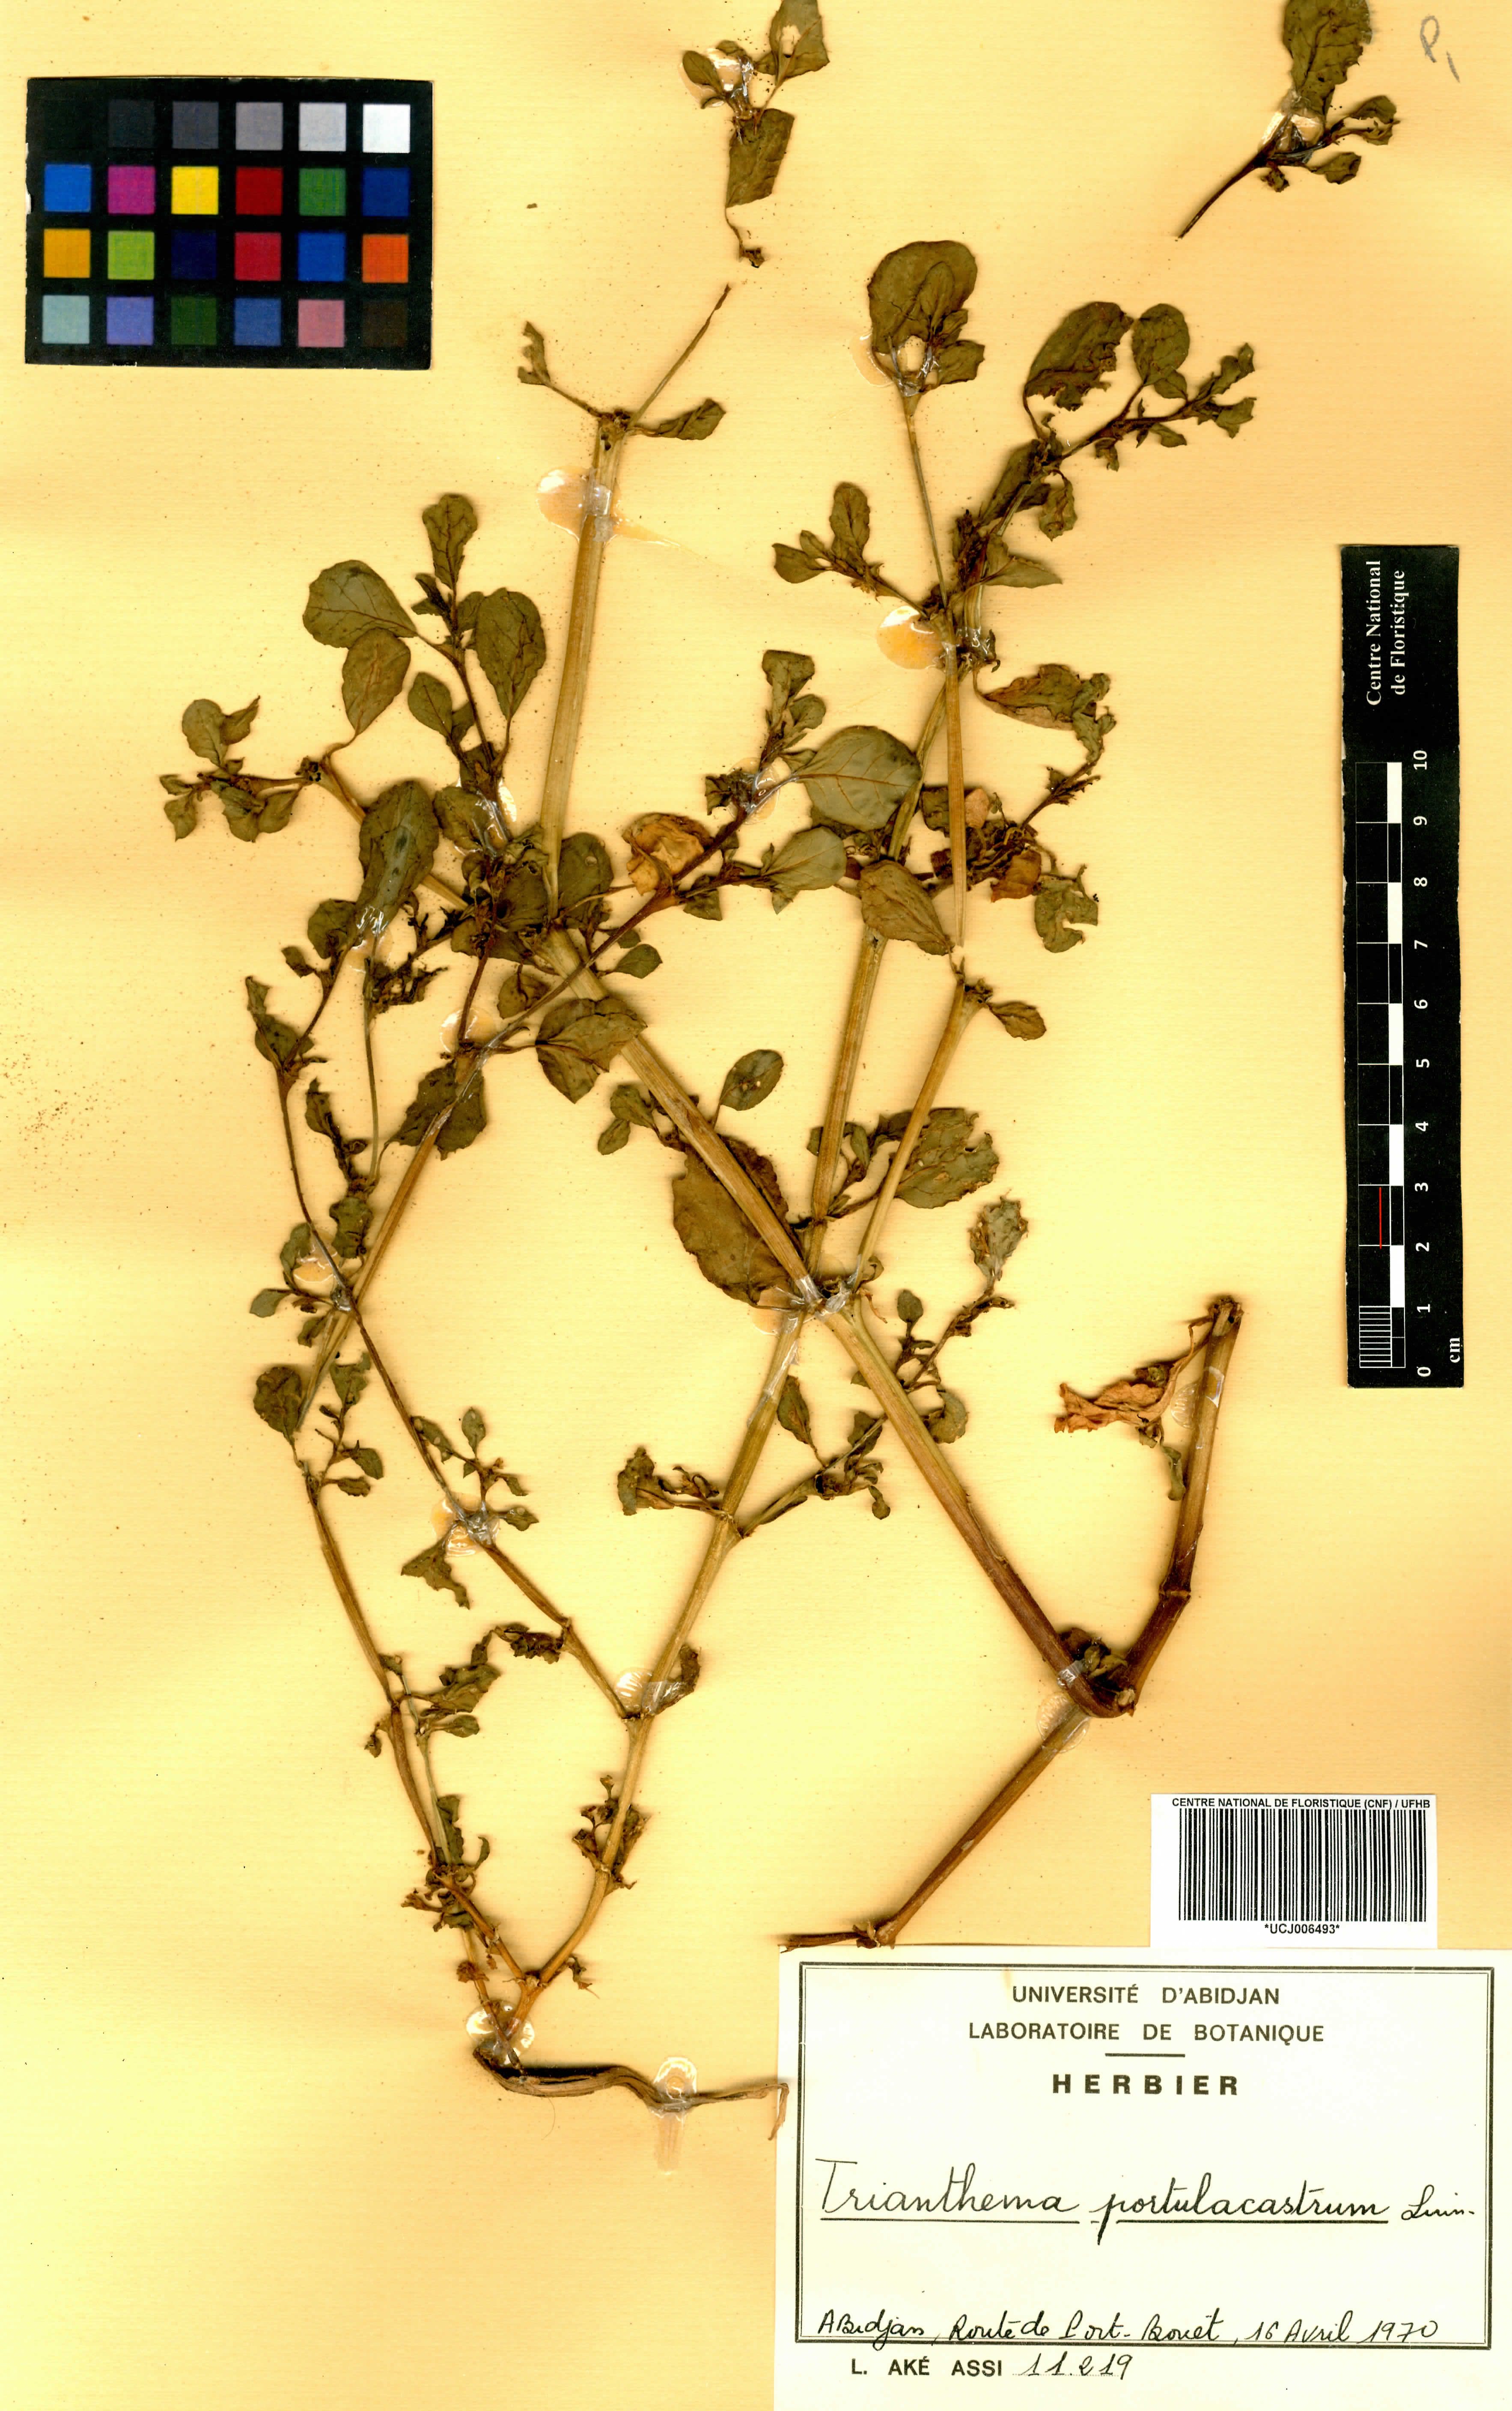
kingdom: Plantae
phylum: Tracheophyta
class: Magnoliopsida
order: Caryophyllales
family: Aizoaceae
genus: Trianthema
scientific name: Trianthema portulacastrum
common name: Desert horsepurslane
